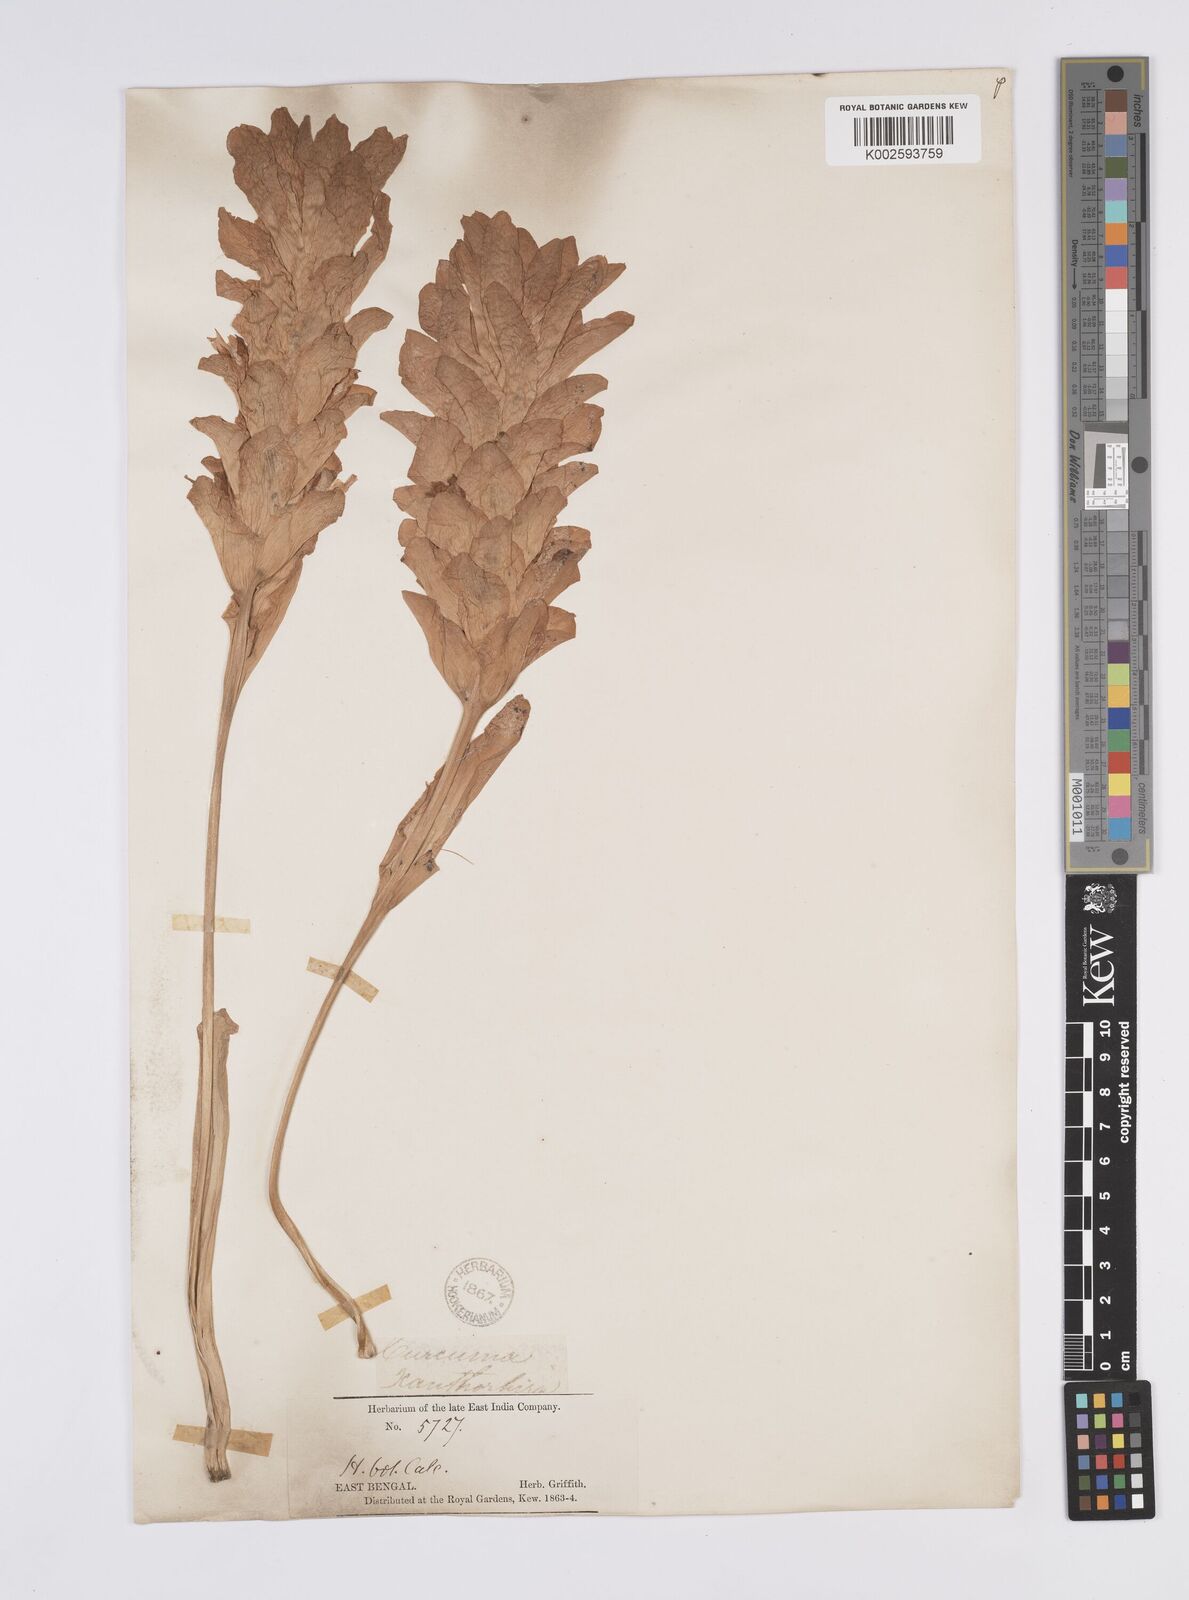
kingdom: Plantae
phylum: Tracheophyta
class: Liliopsida
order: Zingiberales
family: Zingiberaceae
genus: Curcuma
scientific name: Curcuma zanthorrhiza
